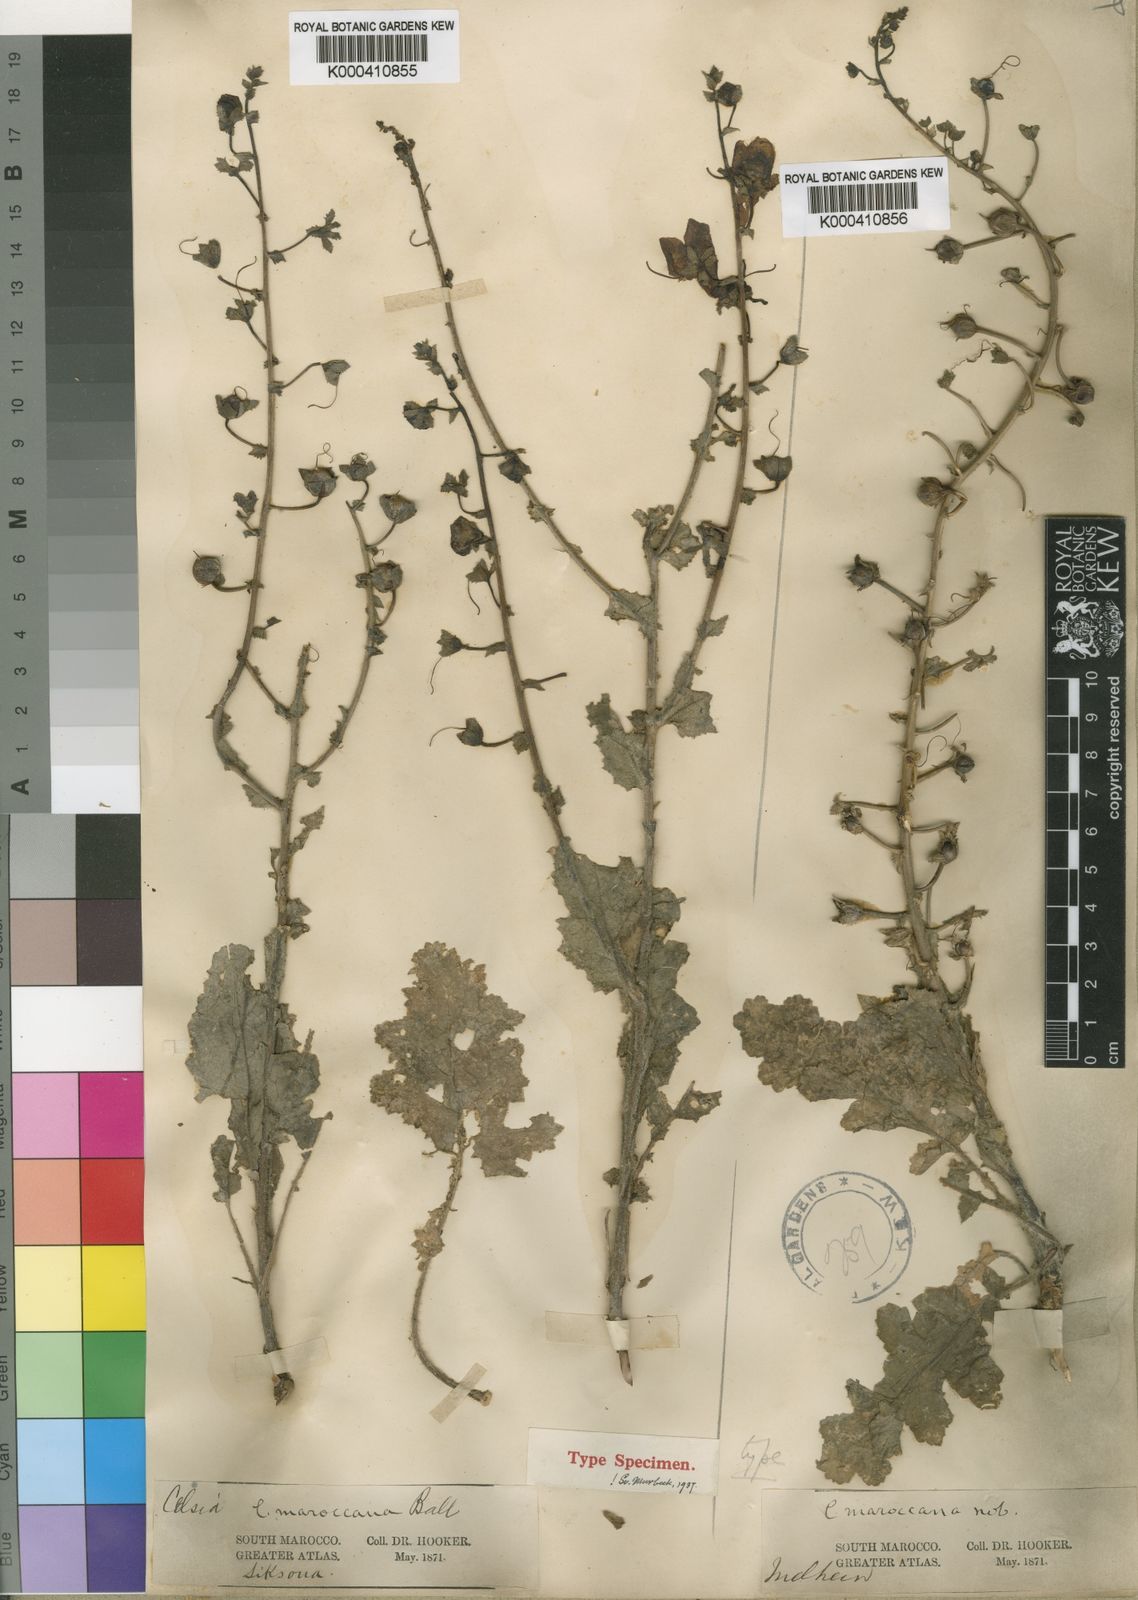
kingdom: Plantae
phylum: Tracheophyta
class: Magnoliopsida
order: Lamiales
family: Scrophulariaceae
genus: Verbascum
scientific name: Verbascum maroccanum
